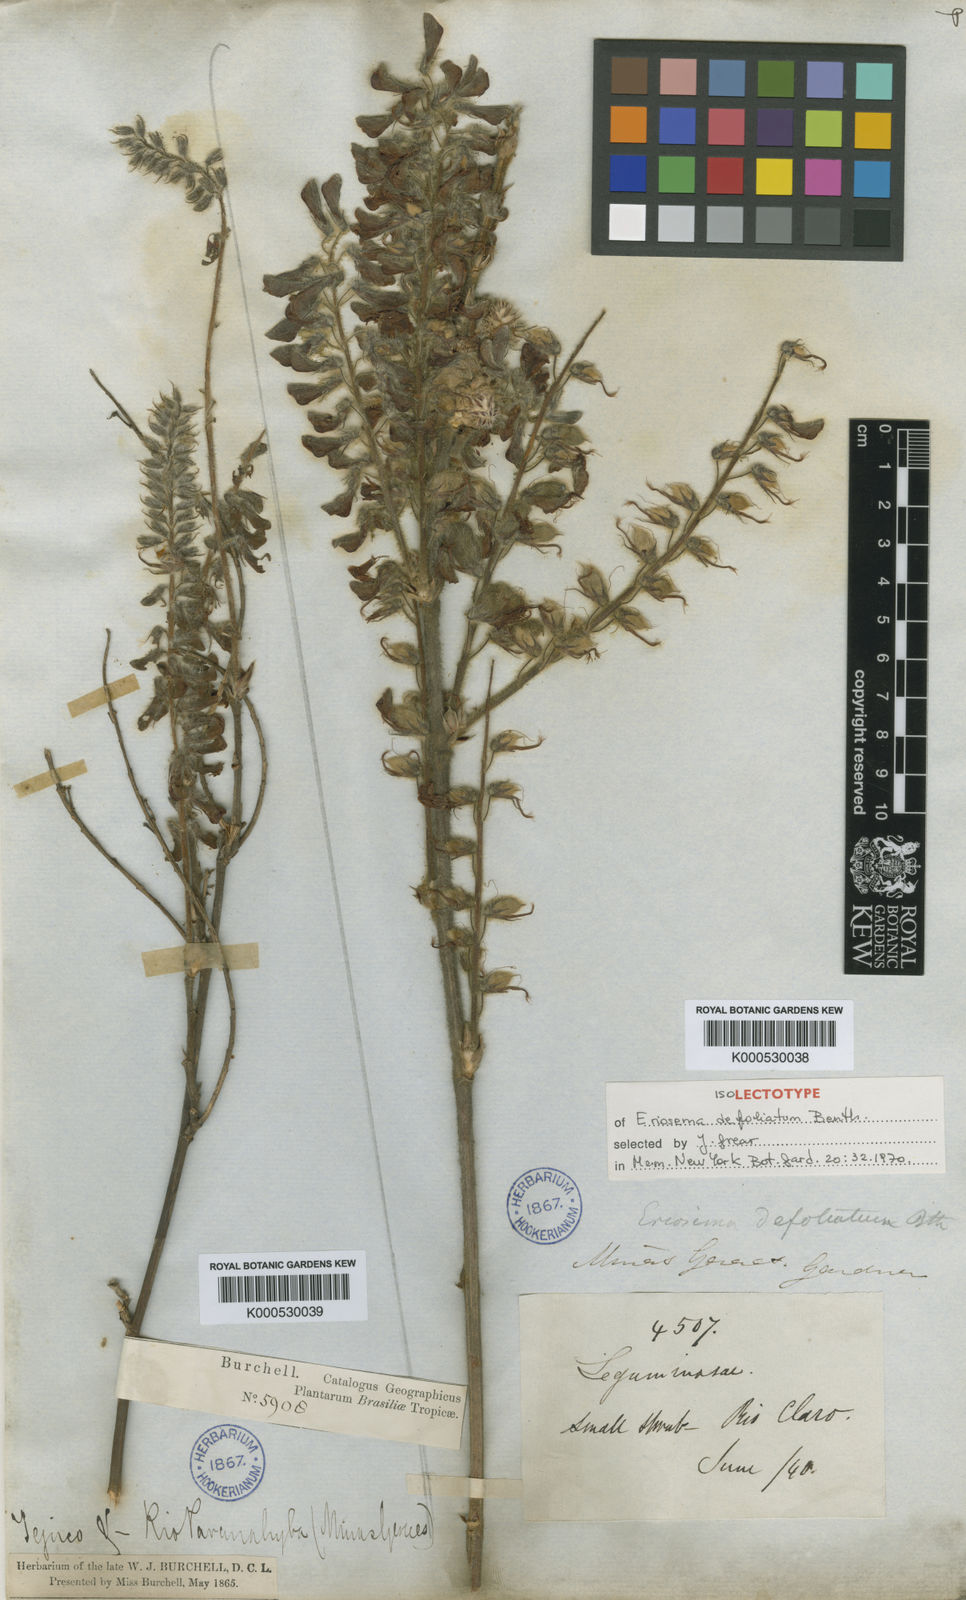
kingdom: Plantae
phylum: Tracheophyta
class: Magnoliopsida
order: Fabales
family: Fabaceae
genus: Eriosema
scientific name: Eriosema defoliatum
